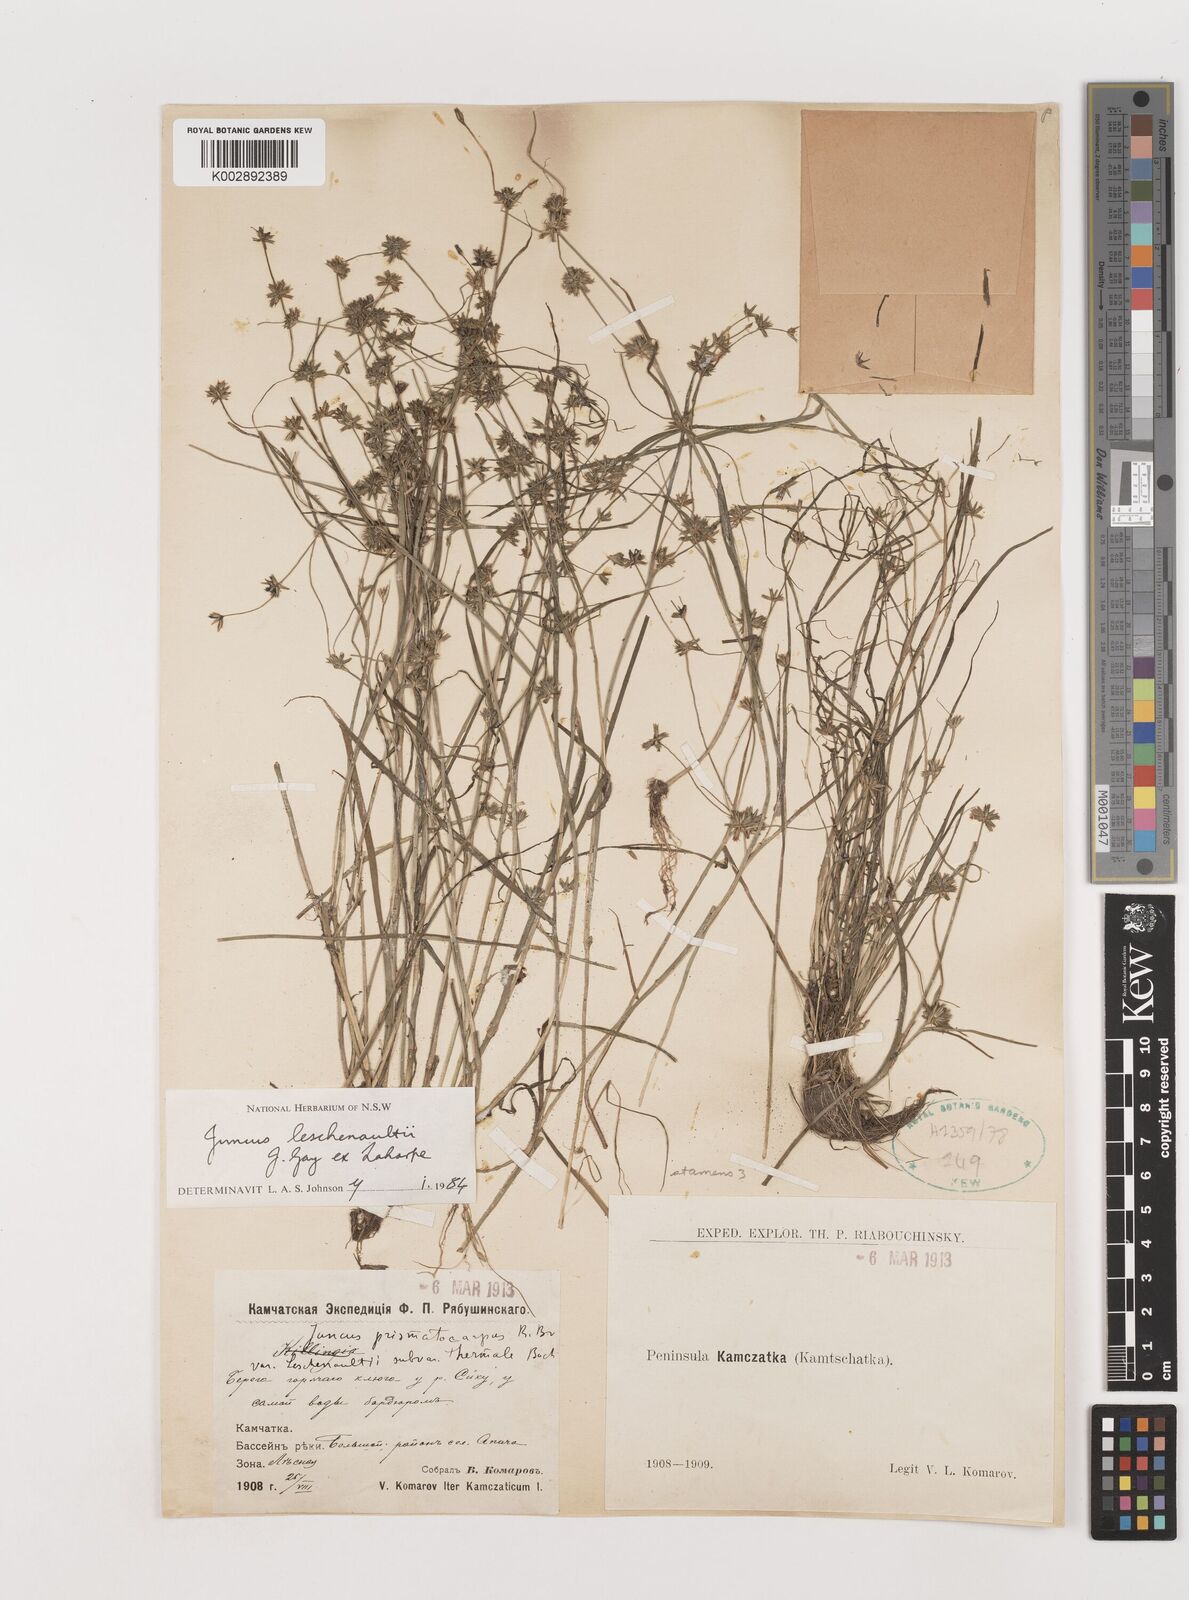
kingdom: Plantae
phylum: Tracheophyta
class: Liliopsida
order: Poales
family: Juncaceae
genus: Juncus
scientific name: Juncus prismatocarpus
